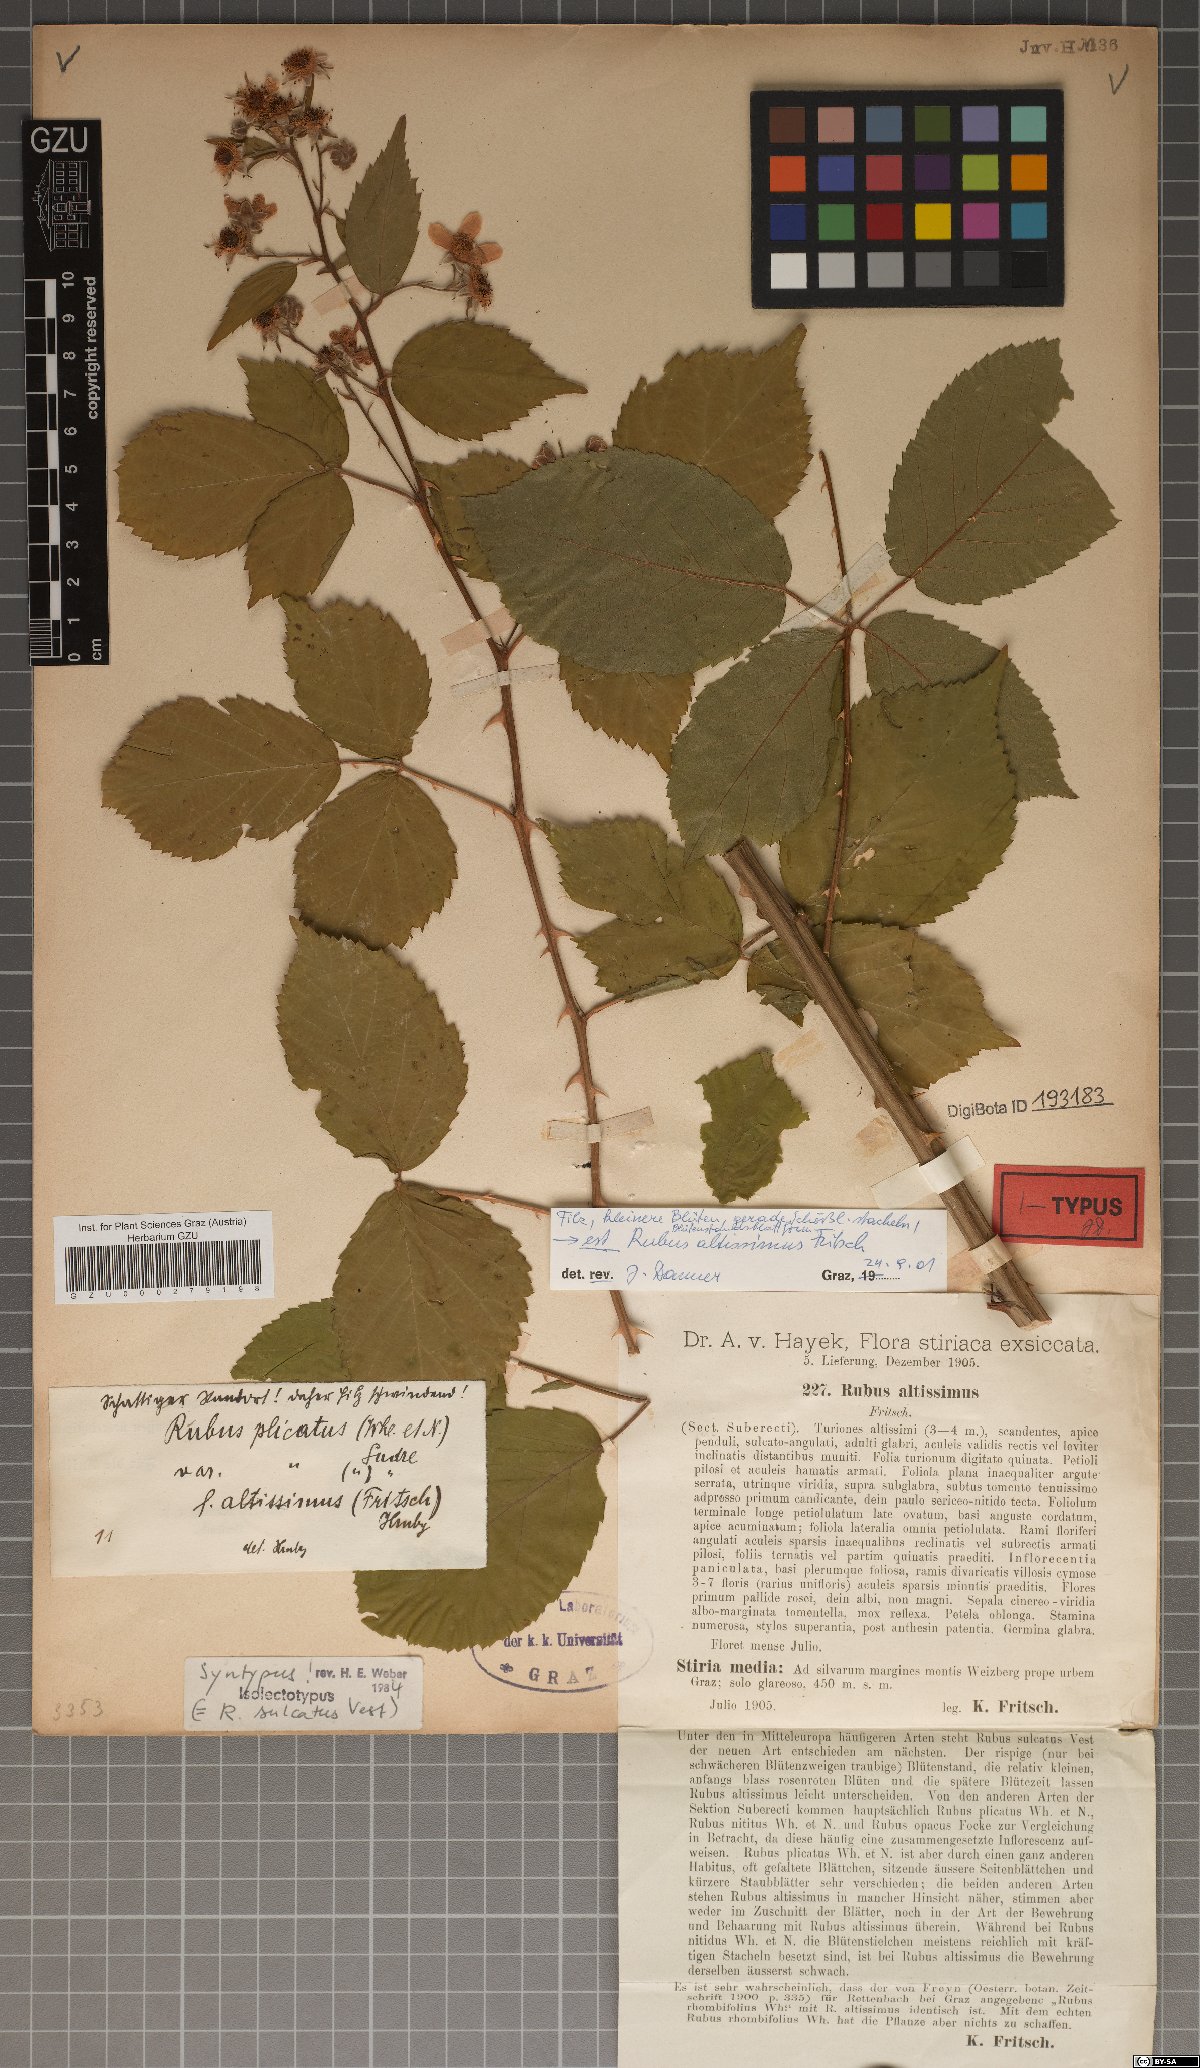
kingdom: Plantae
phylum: Tracheophyta
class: Magnoliopsida
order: Rosales
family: Rosaceae
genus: Rubus
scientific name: Rubus sulcatus
